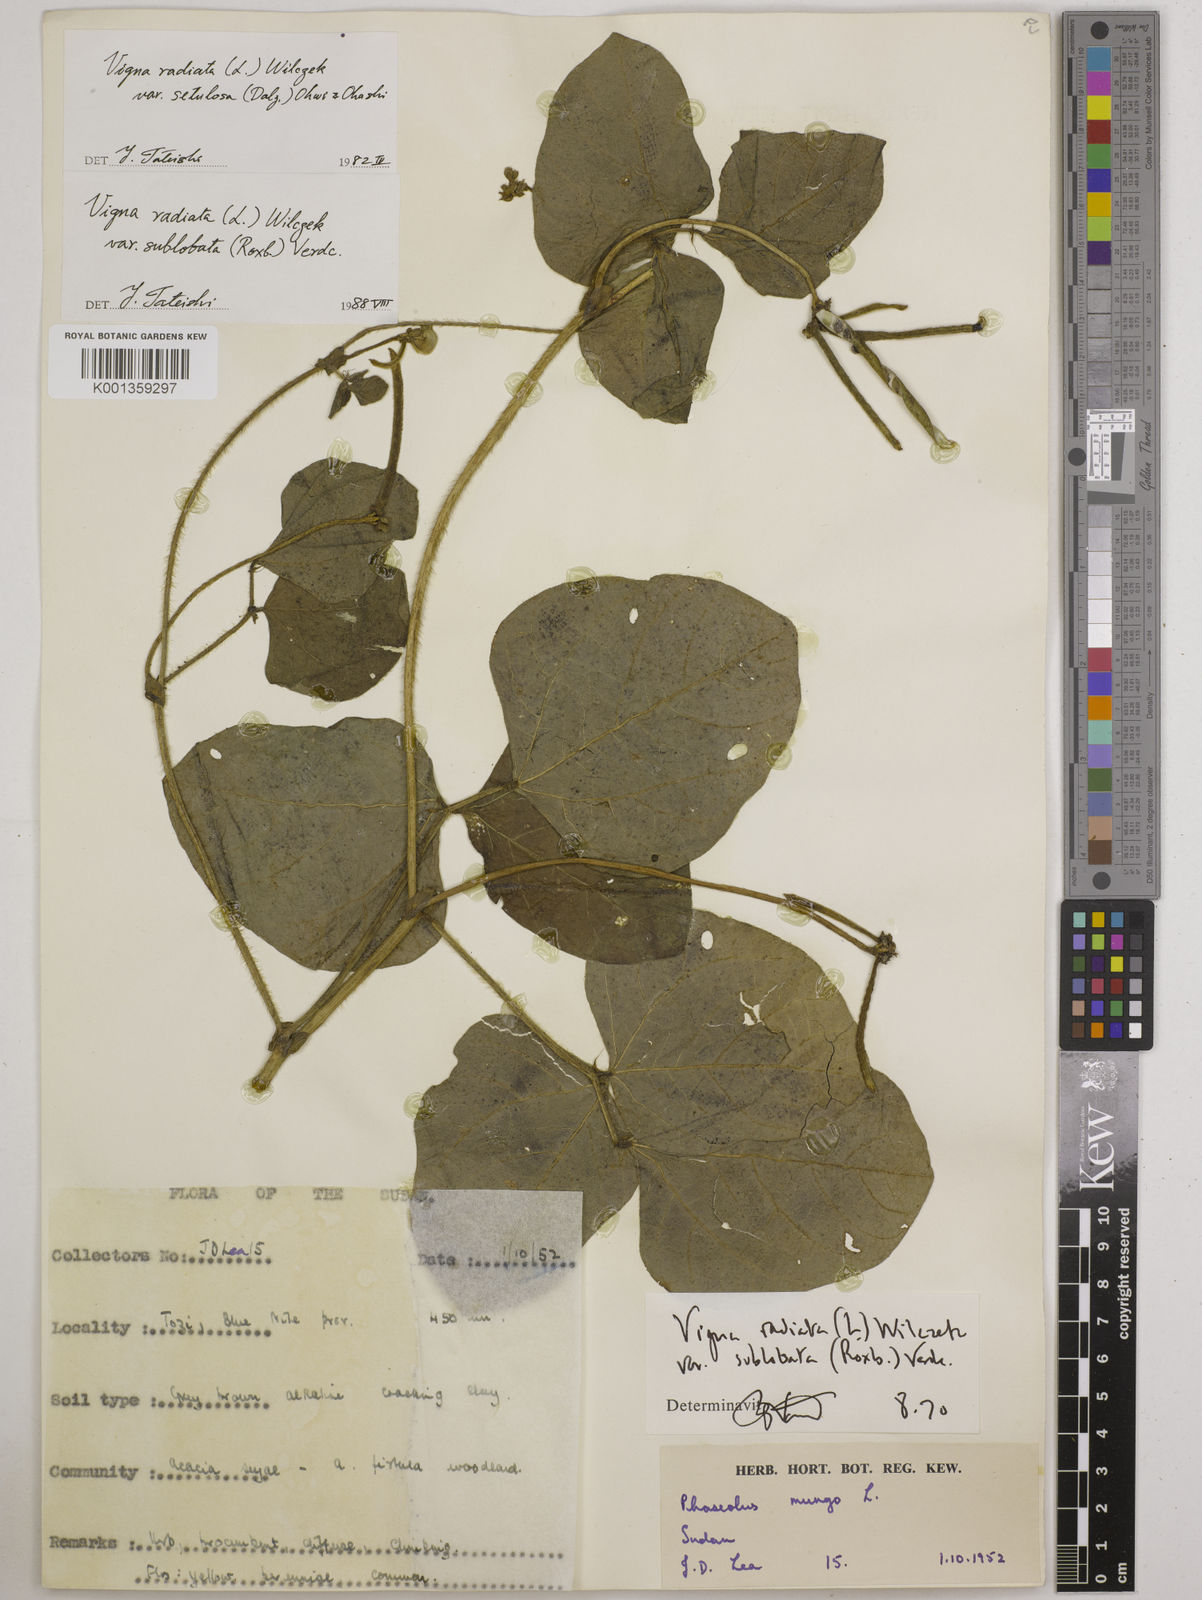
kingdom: Plantae
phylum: Tracheophyta
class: Magnoliopsida
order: Fabales
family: Fabaceae
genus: Vigna
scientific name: Vigna radiata
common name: Mung-bean
